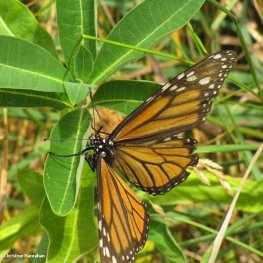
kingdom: Animalia
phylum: Arthropoda
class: Insecta
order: Lepidoptera
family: Nymphalidae
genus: Danaus
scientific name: Danaus plexippus
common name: Monarch
